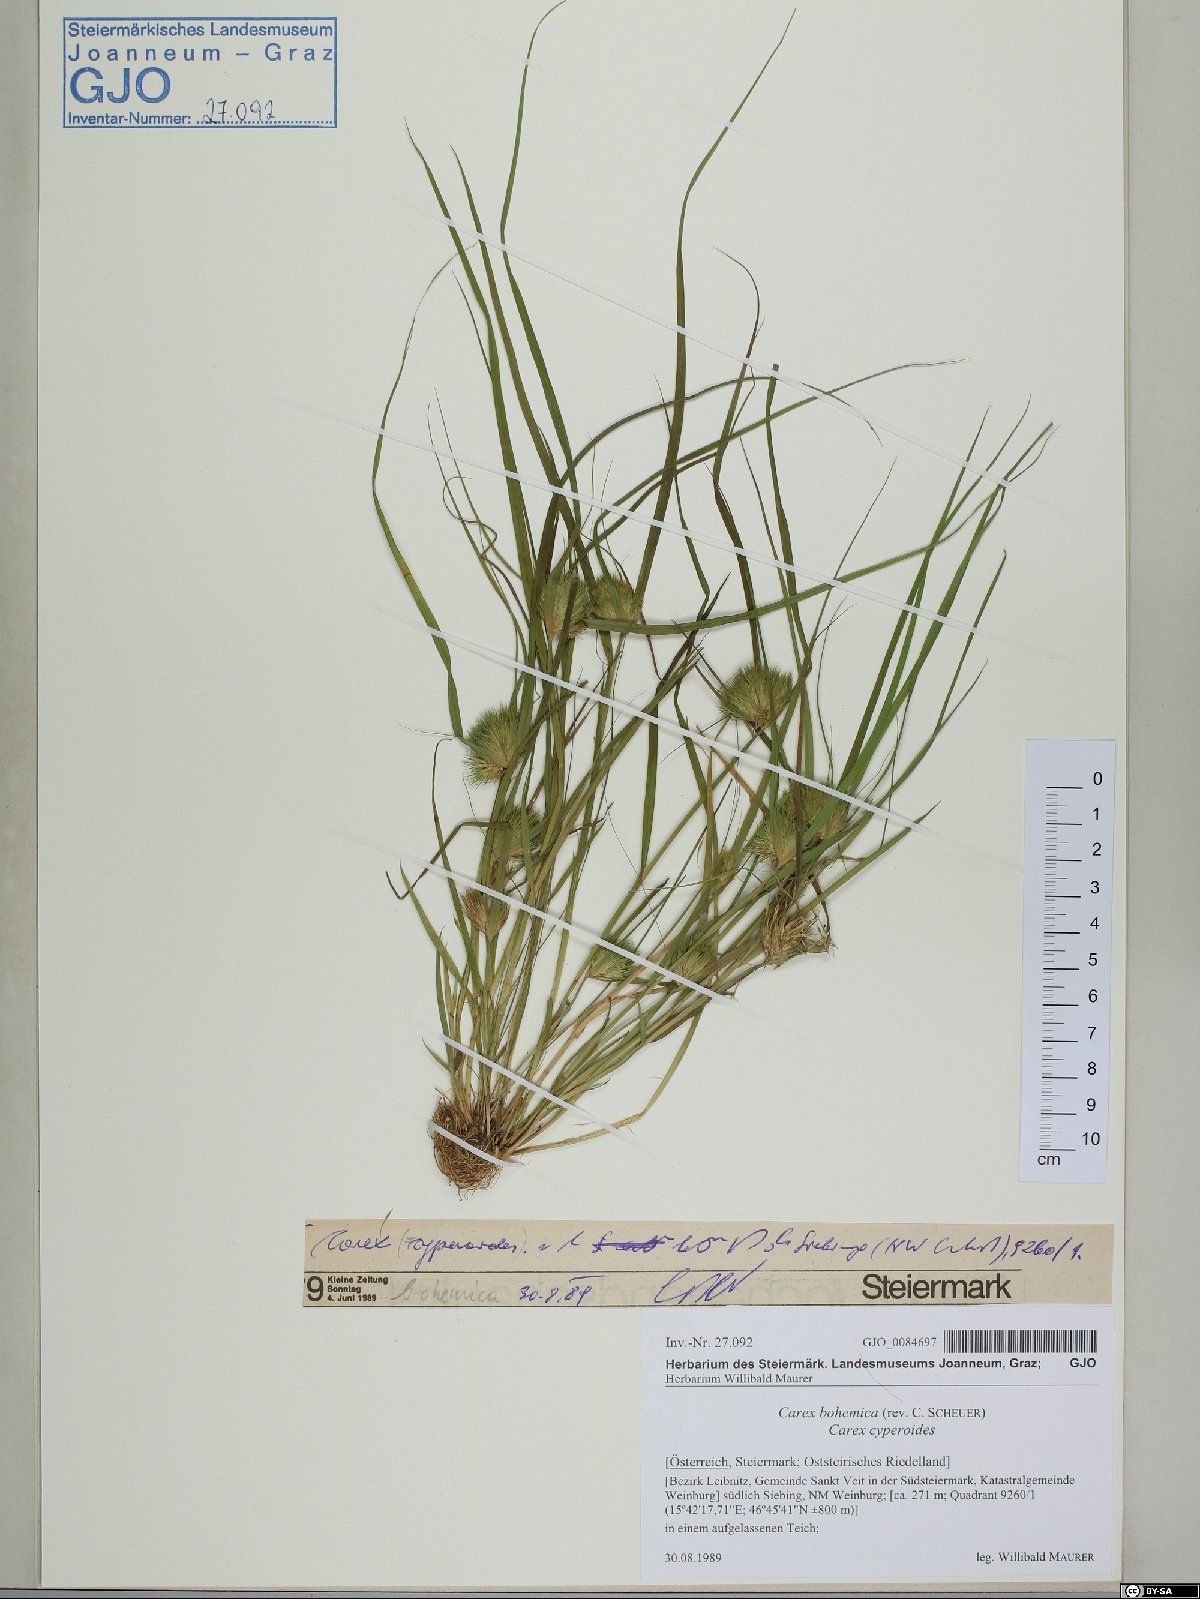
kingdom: Plantae
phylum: Tracheophyta
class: Liliopsida
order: Poales
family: Cyperaceae
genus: Carex
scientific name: Carex bohemica
